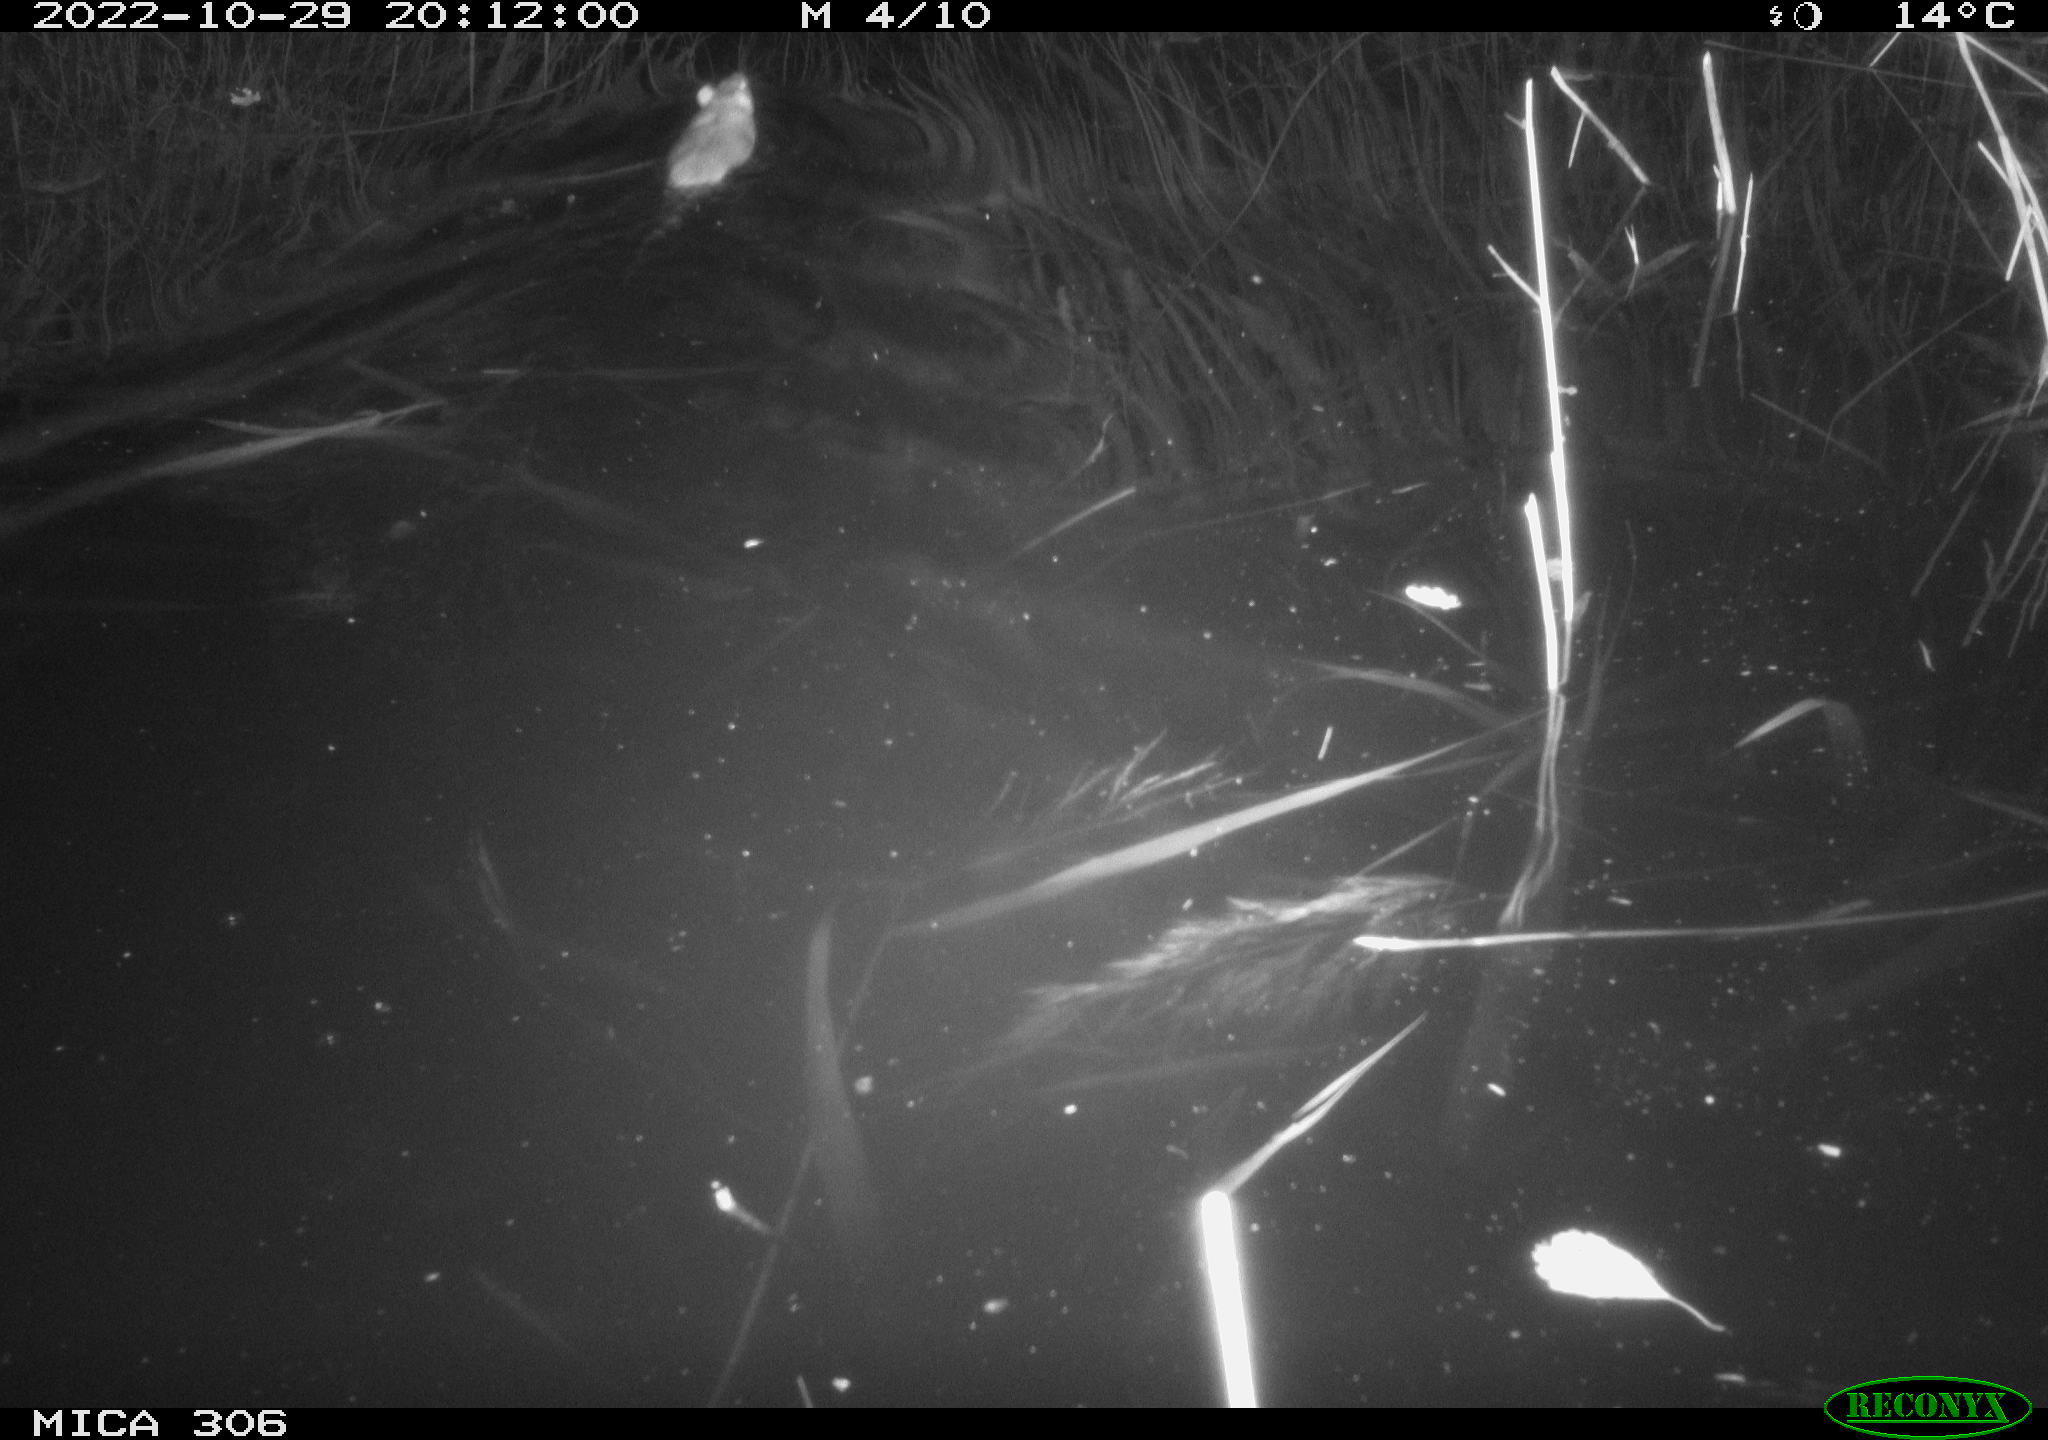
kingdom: Animalia
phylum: Chordata
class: Mammalia
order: Rodentia
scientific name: Rodentia
